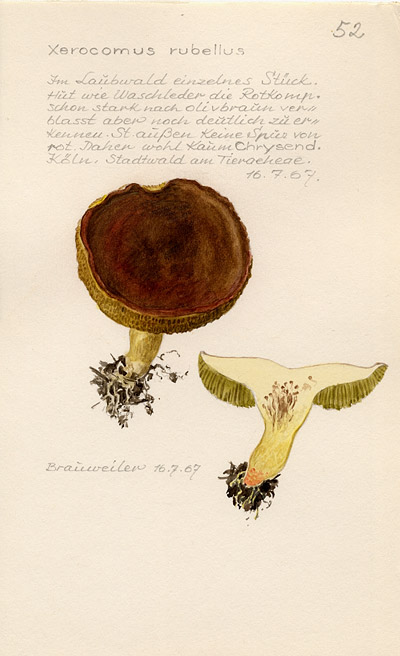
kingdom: Fungi
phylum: Basidiomycota
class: Agaricomycetes
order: Boletales
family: Boletaceae
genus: Hortiboletus
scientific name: Hortiboletus rubellus
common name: Ruby bolete
